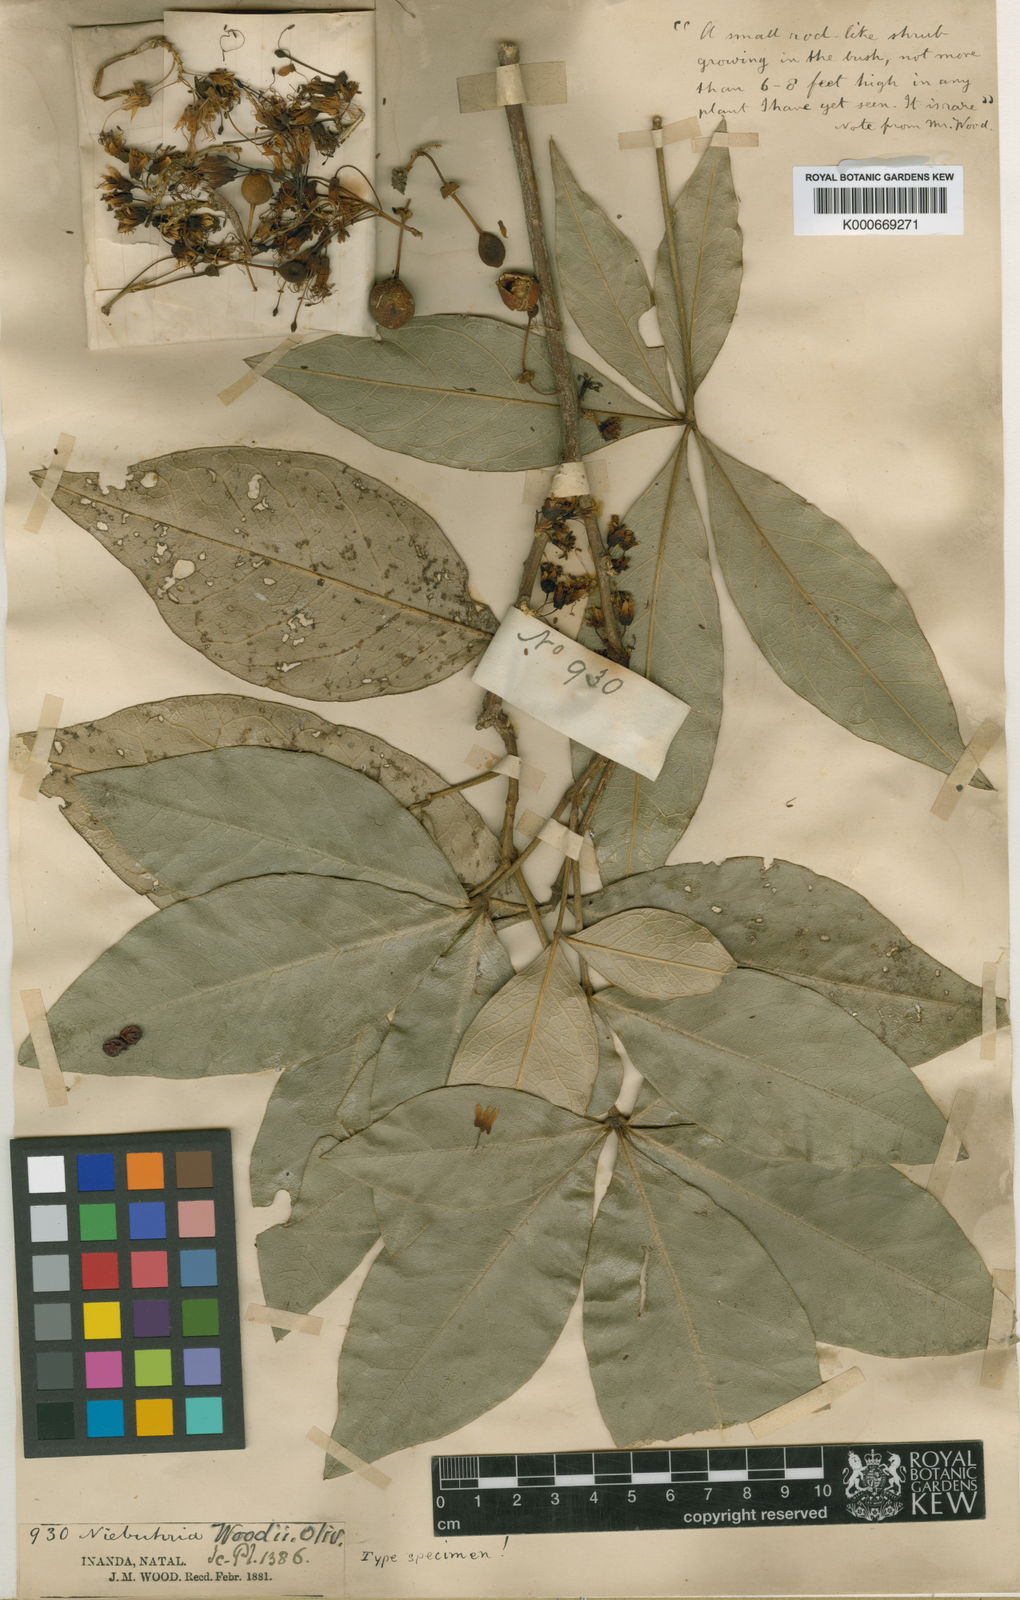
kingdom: Plantae
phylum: Tracheophyta
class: Magnoliopsida
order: Brassicales
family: Capparaceae
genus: Bachmannia
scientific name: Bachmannia woodii
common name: Four-finger bush
